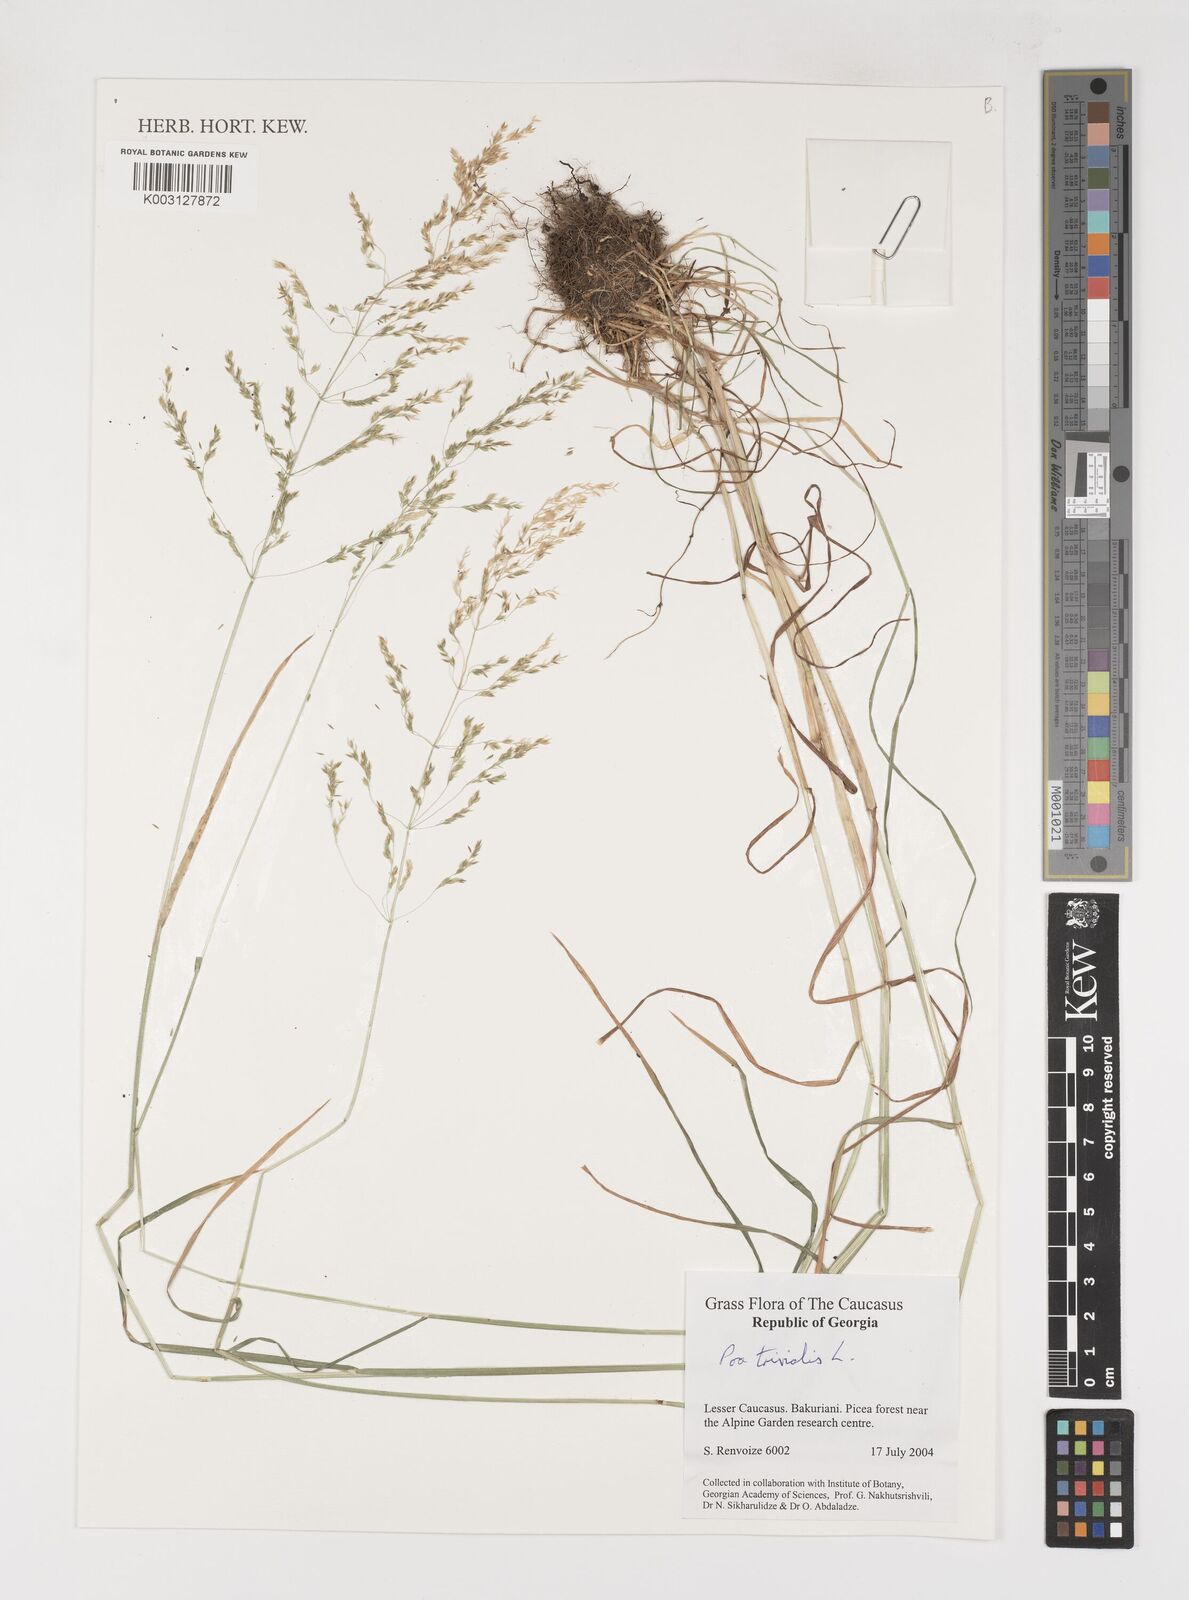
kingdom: Plantae
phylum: Tracheophyta
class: Liliopsida
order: Poales
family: Poaceae
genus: Poa
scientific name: Poa trivialis
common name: Rough bluegrass
